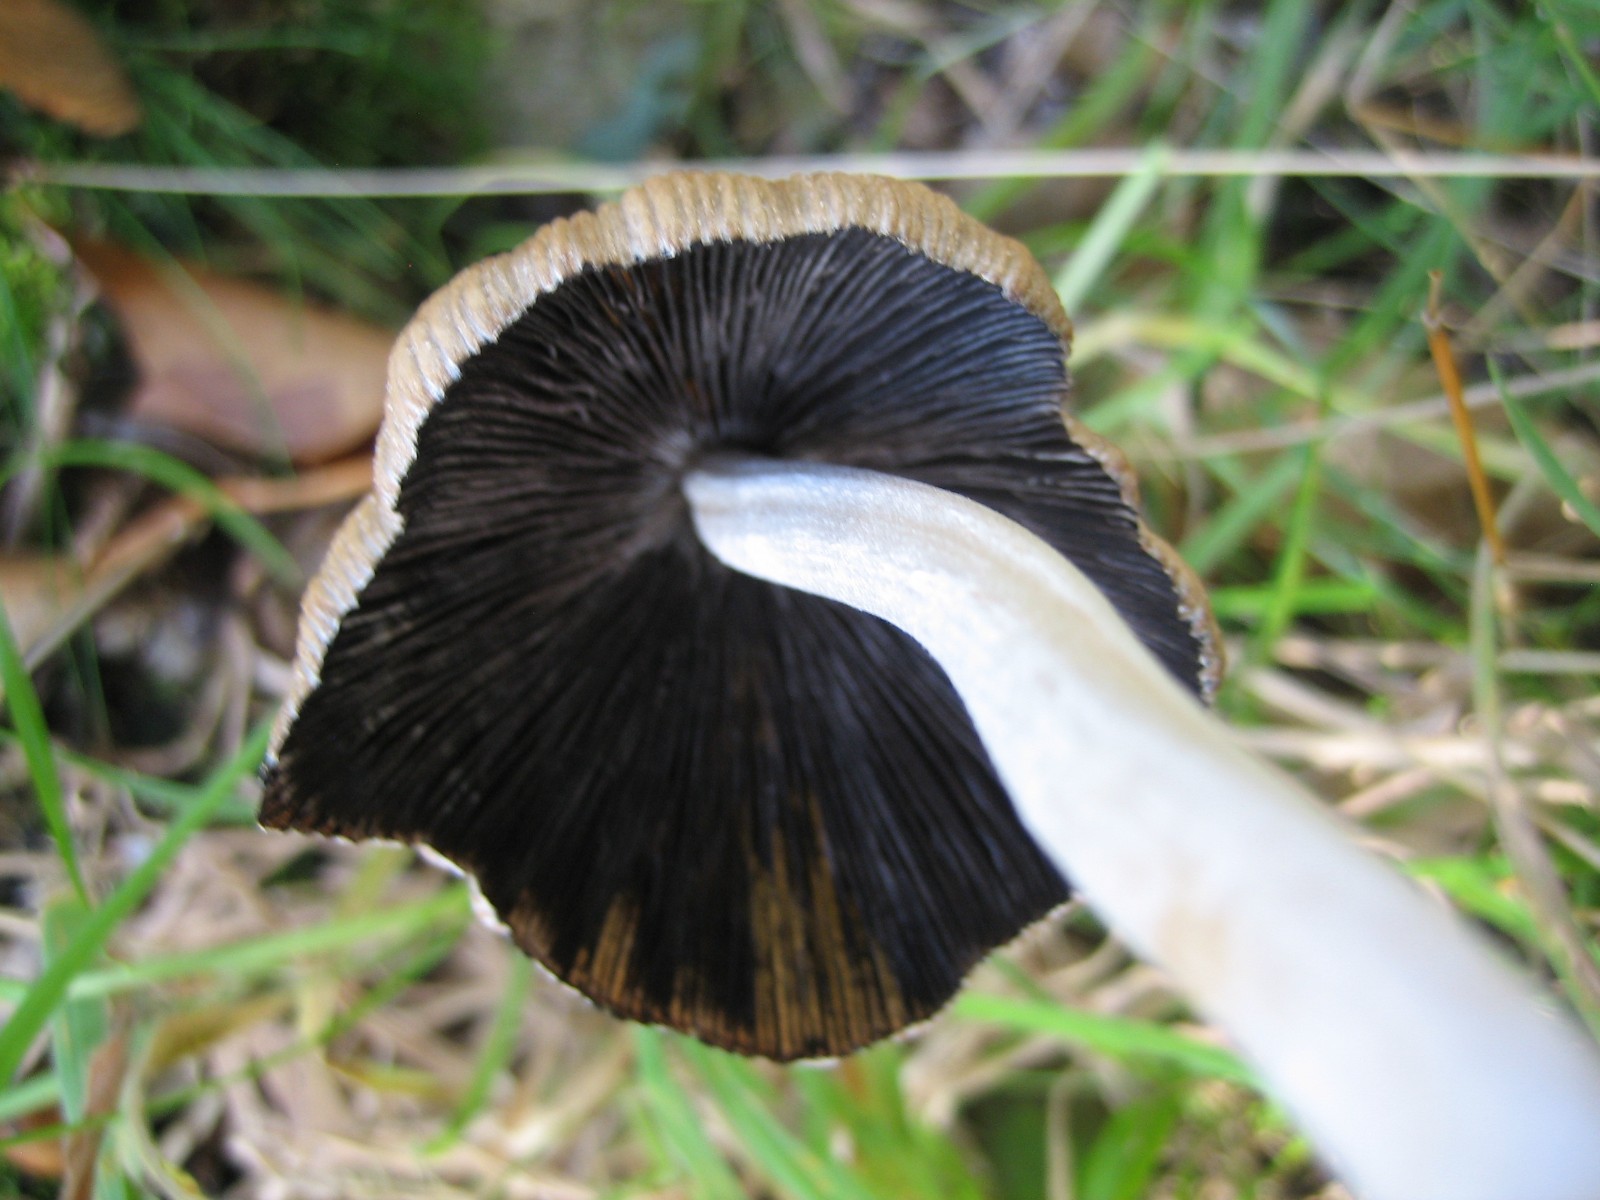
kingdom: Fungi
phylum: Basidiomycota
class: Agaricomycetes
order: Agaricales
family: Psathyrellaceae
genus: Coprinellus
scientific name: Coprinellus
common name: blækhat
